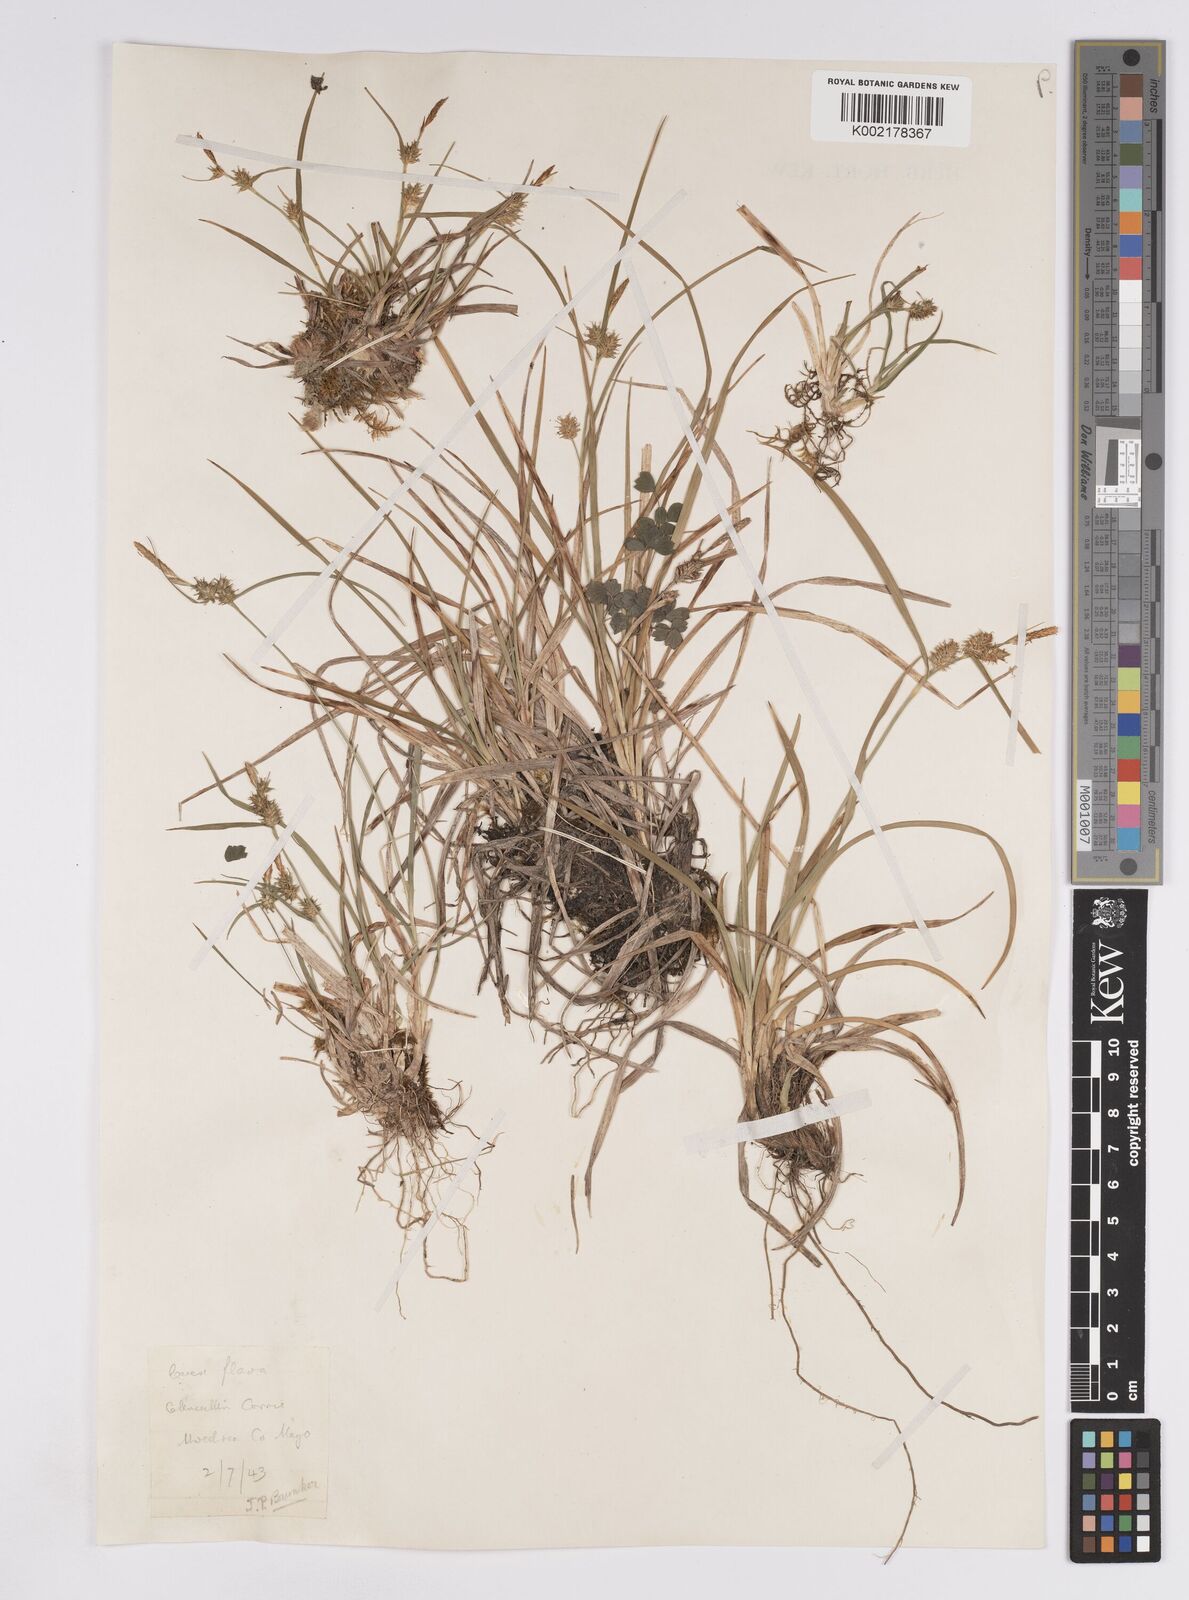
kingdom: Plantae
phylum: Tracheophyta
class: Liliopsida
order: Poales
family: Cyperaceae
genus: Carex
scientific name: Carex demissa
